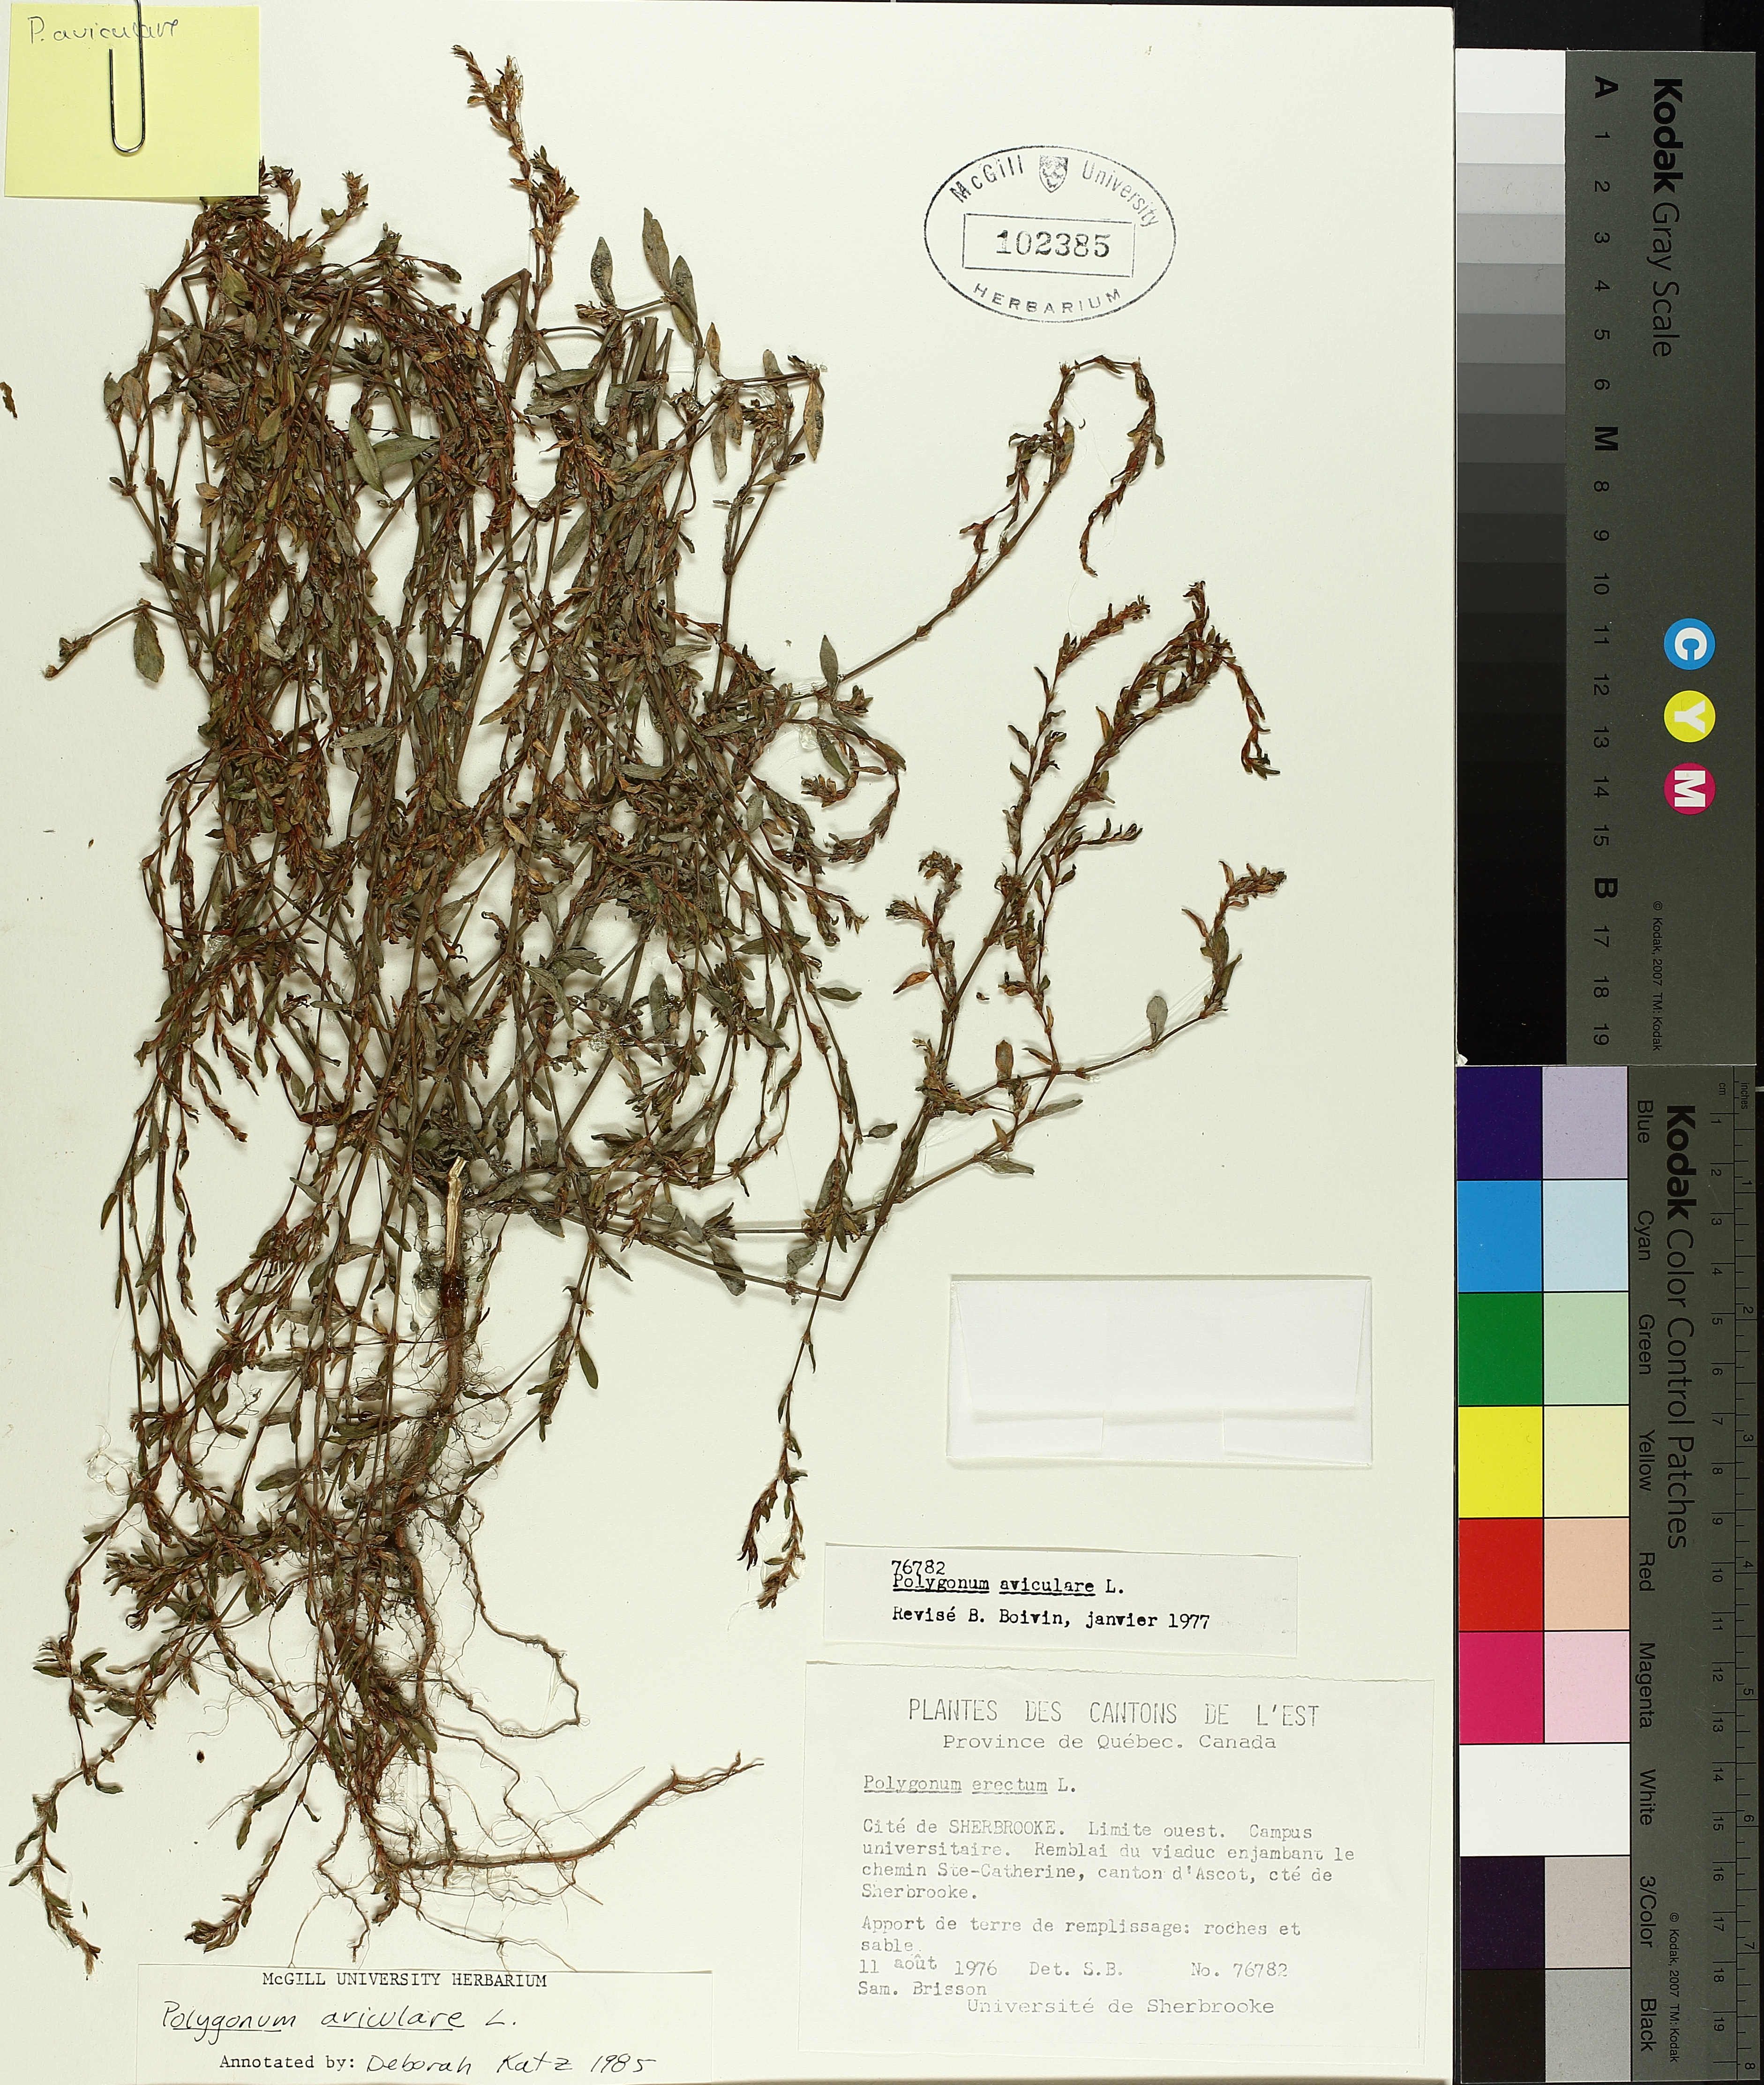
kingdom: Plantae
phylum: Tracheophyta
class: Magnoliopsida
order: Caryophyllales
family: Polygonaceae
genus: Polygonum
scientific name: Polygonum erectum
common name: Erect knotweed
